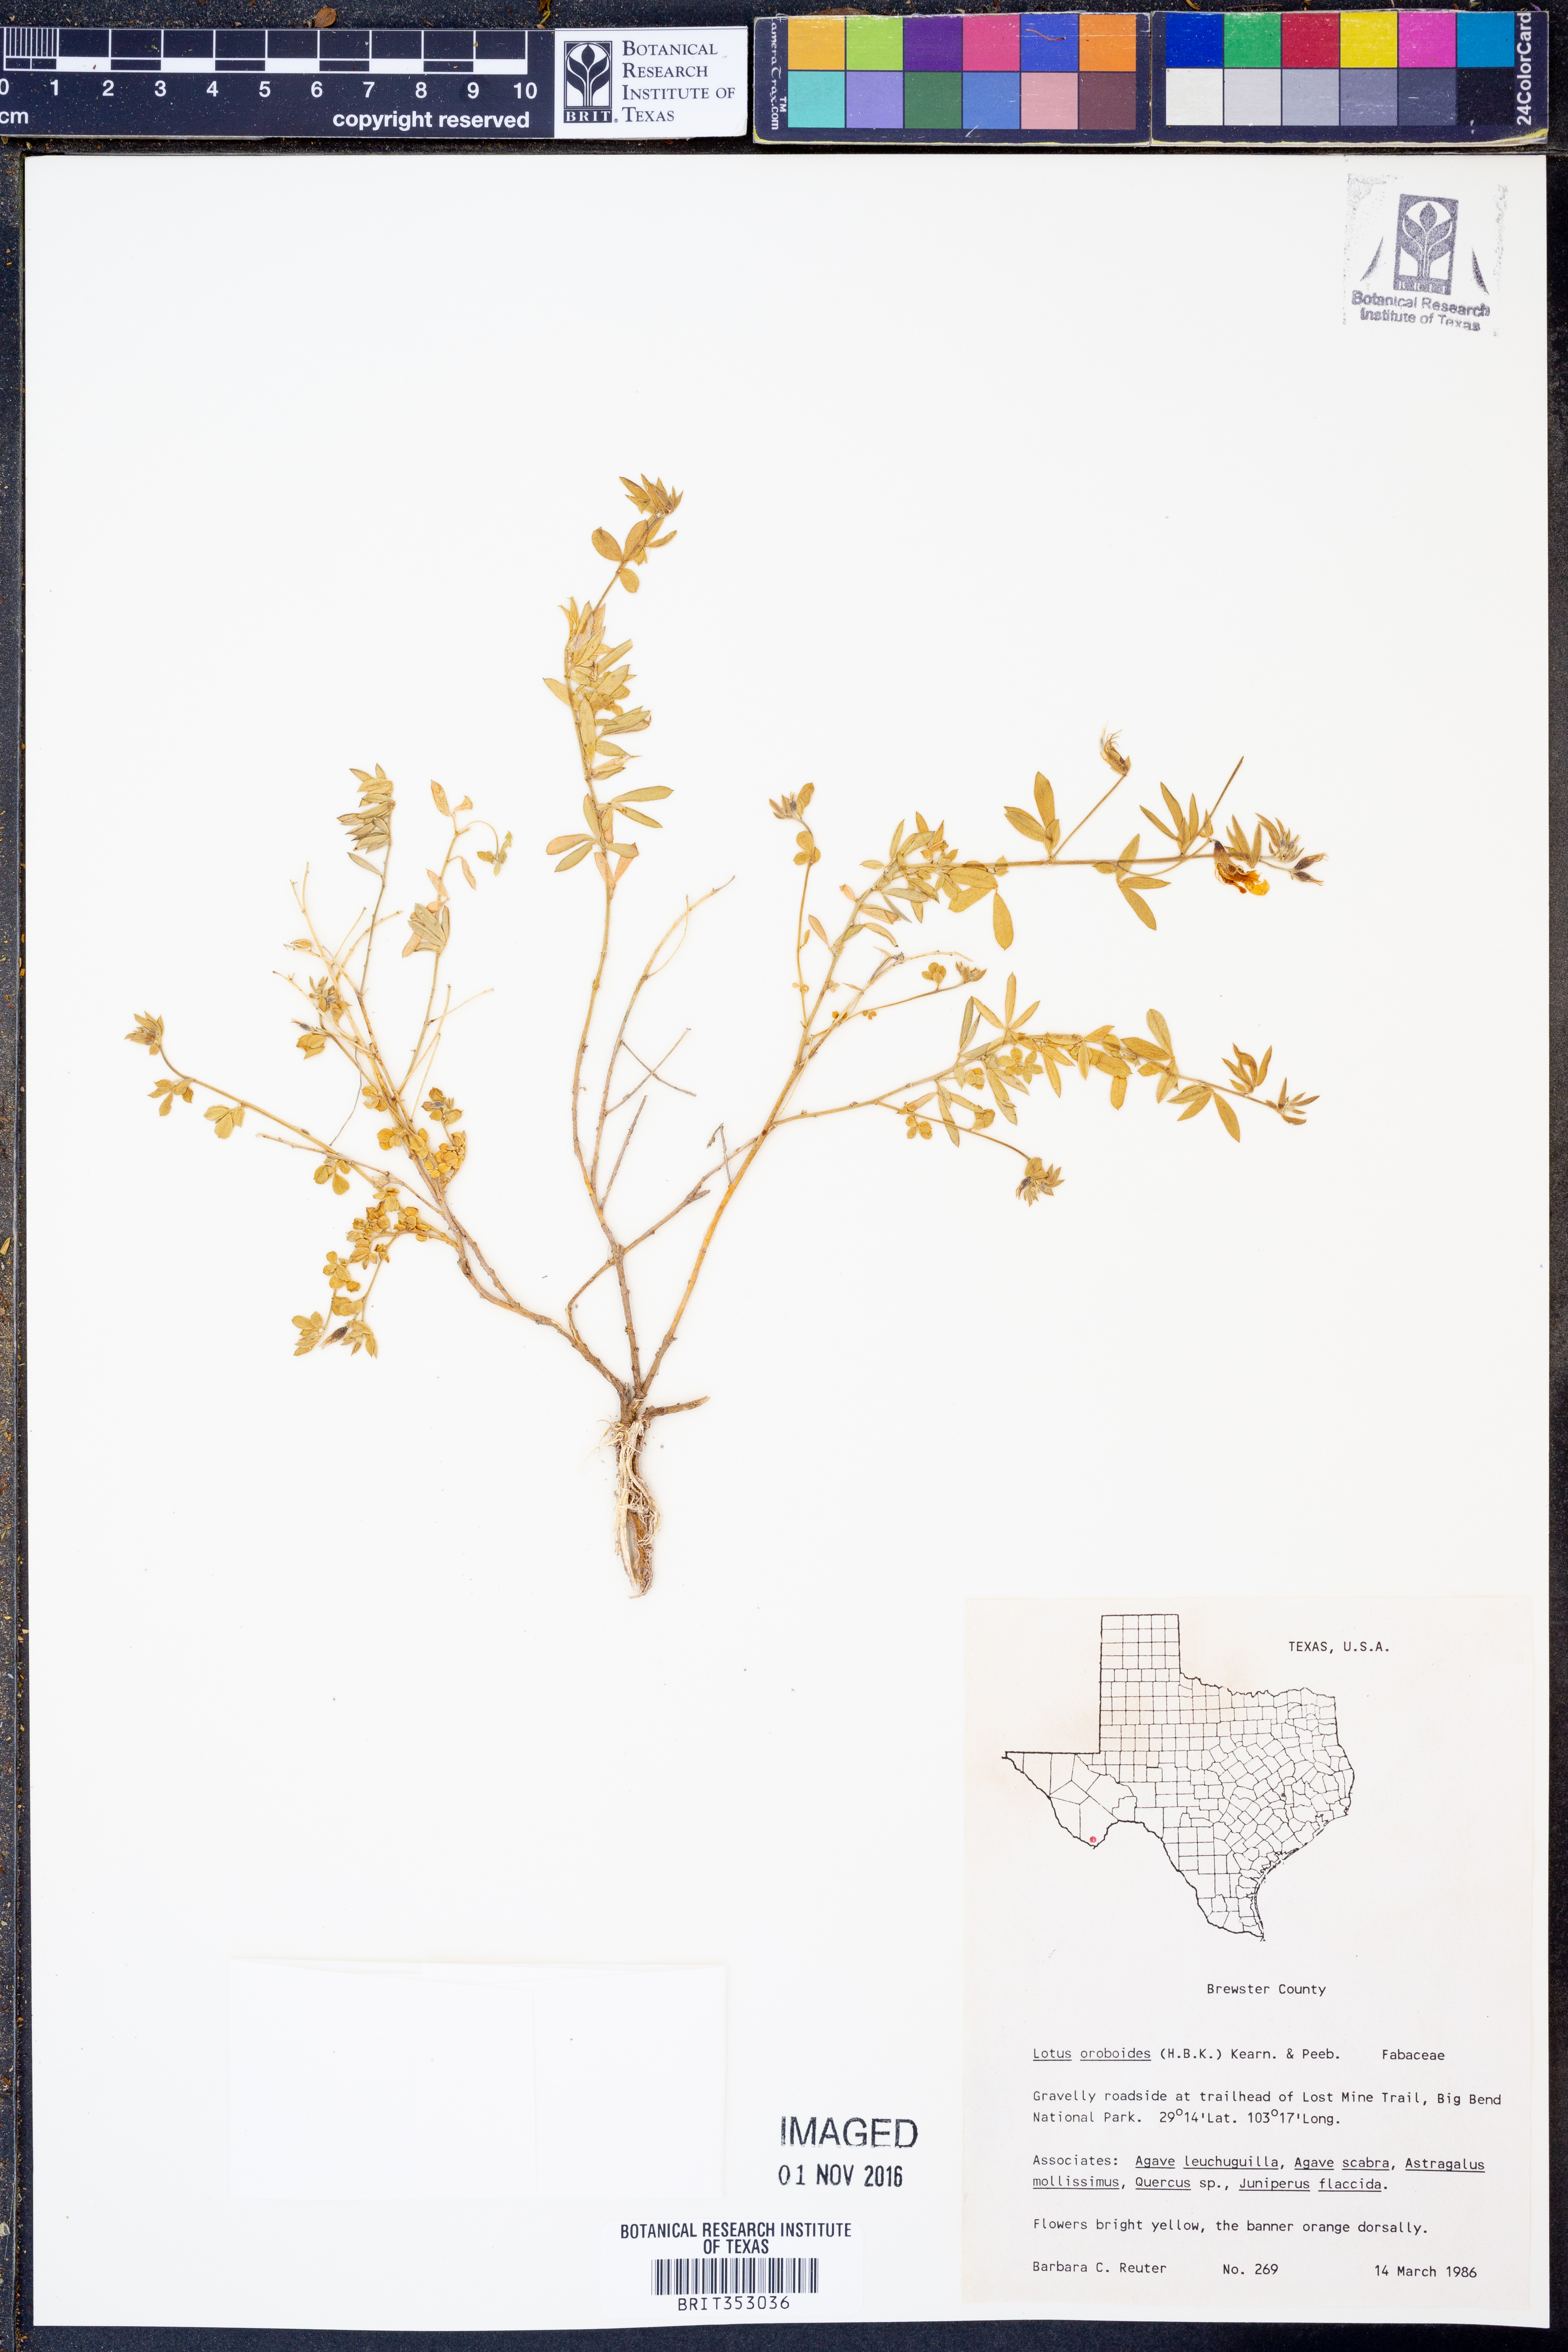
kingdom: Plantae
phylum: Tracheophyta
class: Magnoliopsida
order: Fabales
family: Fabaceae
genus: Acmispon
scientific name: Acmispon oroboides
